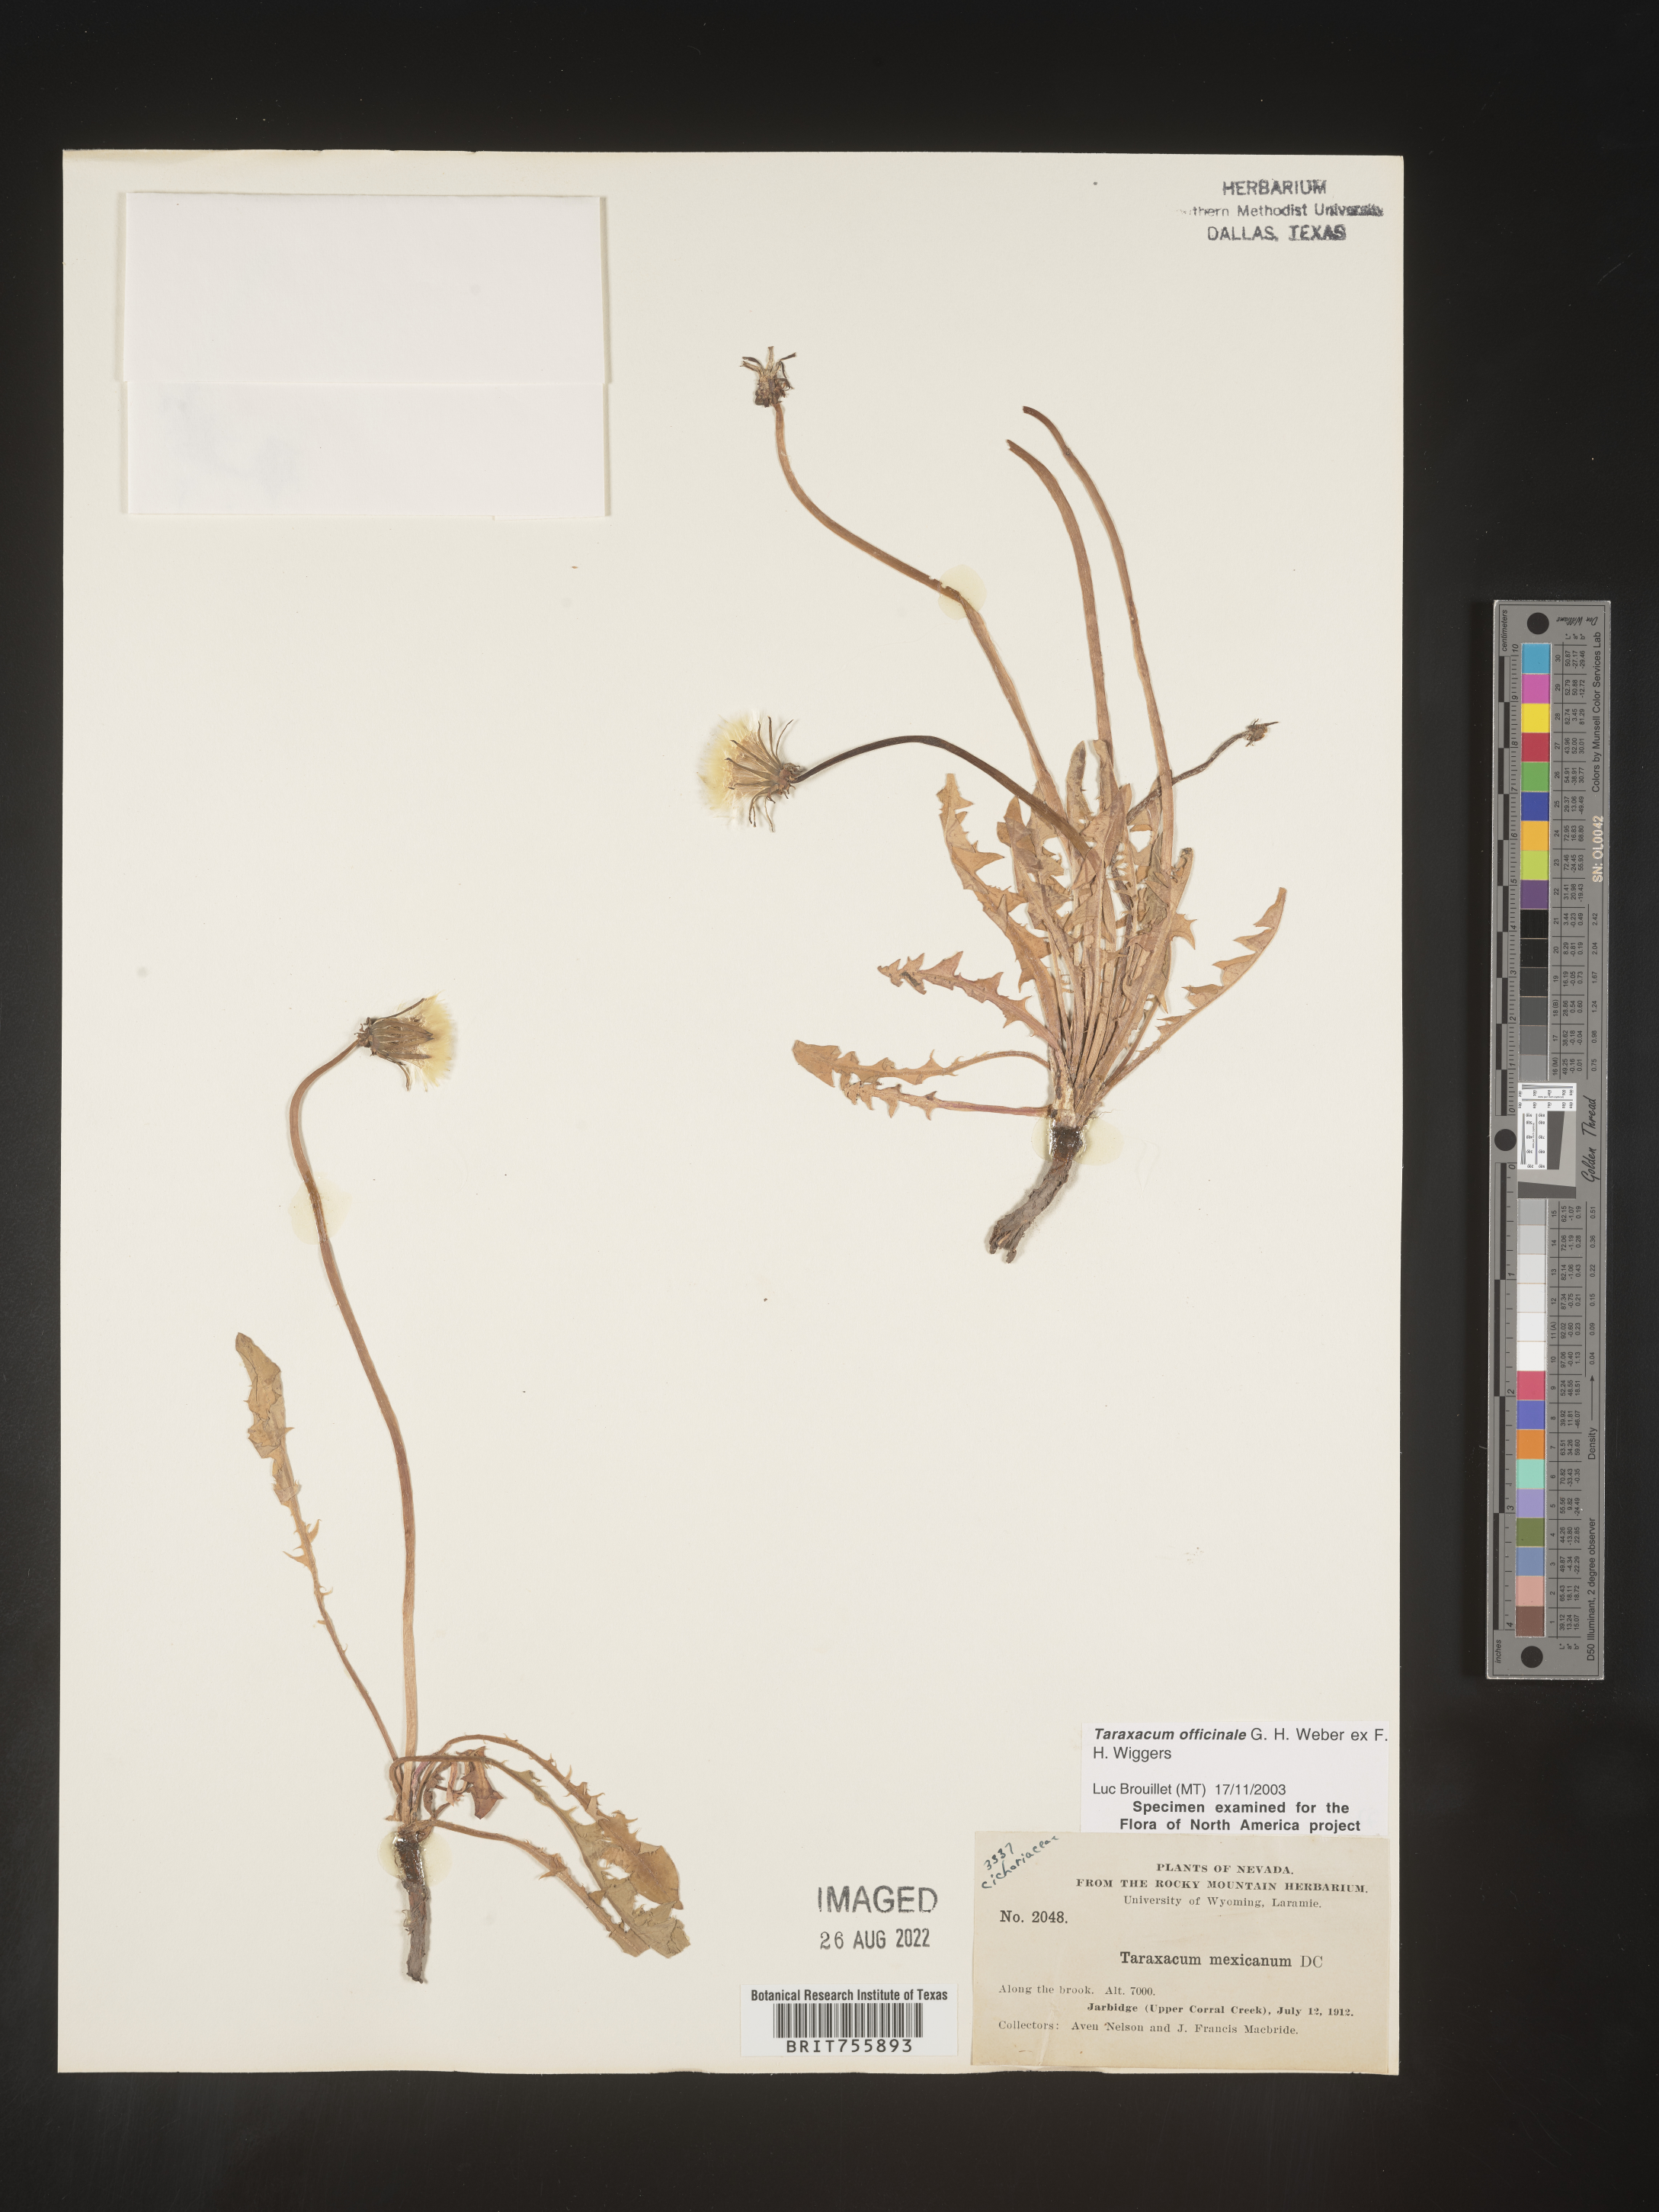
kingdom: Plantae
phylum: Tracheophyta
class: Magnoliopsida
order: Asterales
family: Asteraceae
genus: Taraxacum
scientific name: Taraxacum officinale
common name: Common dandelion
